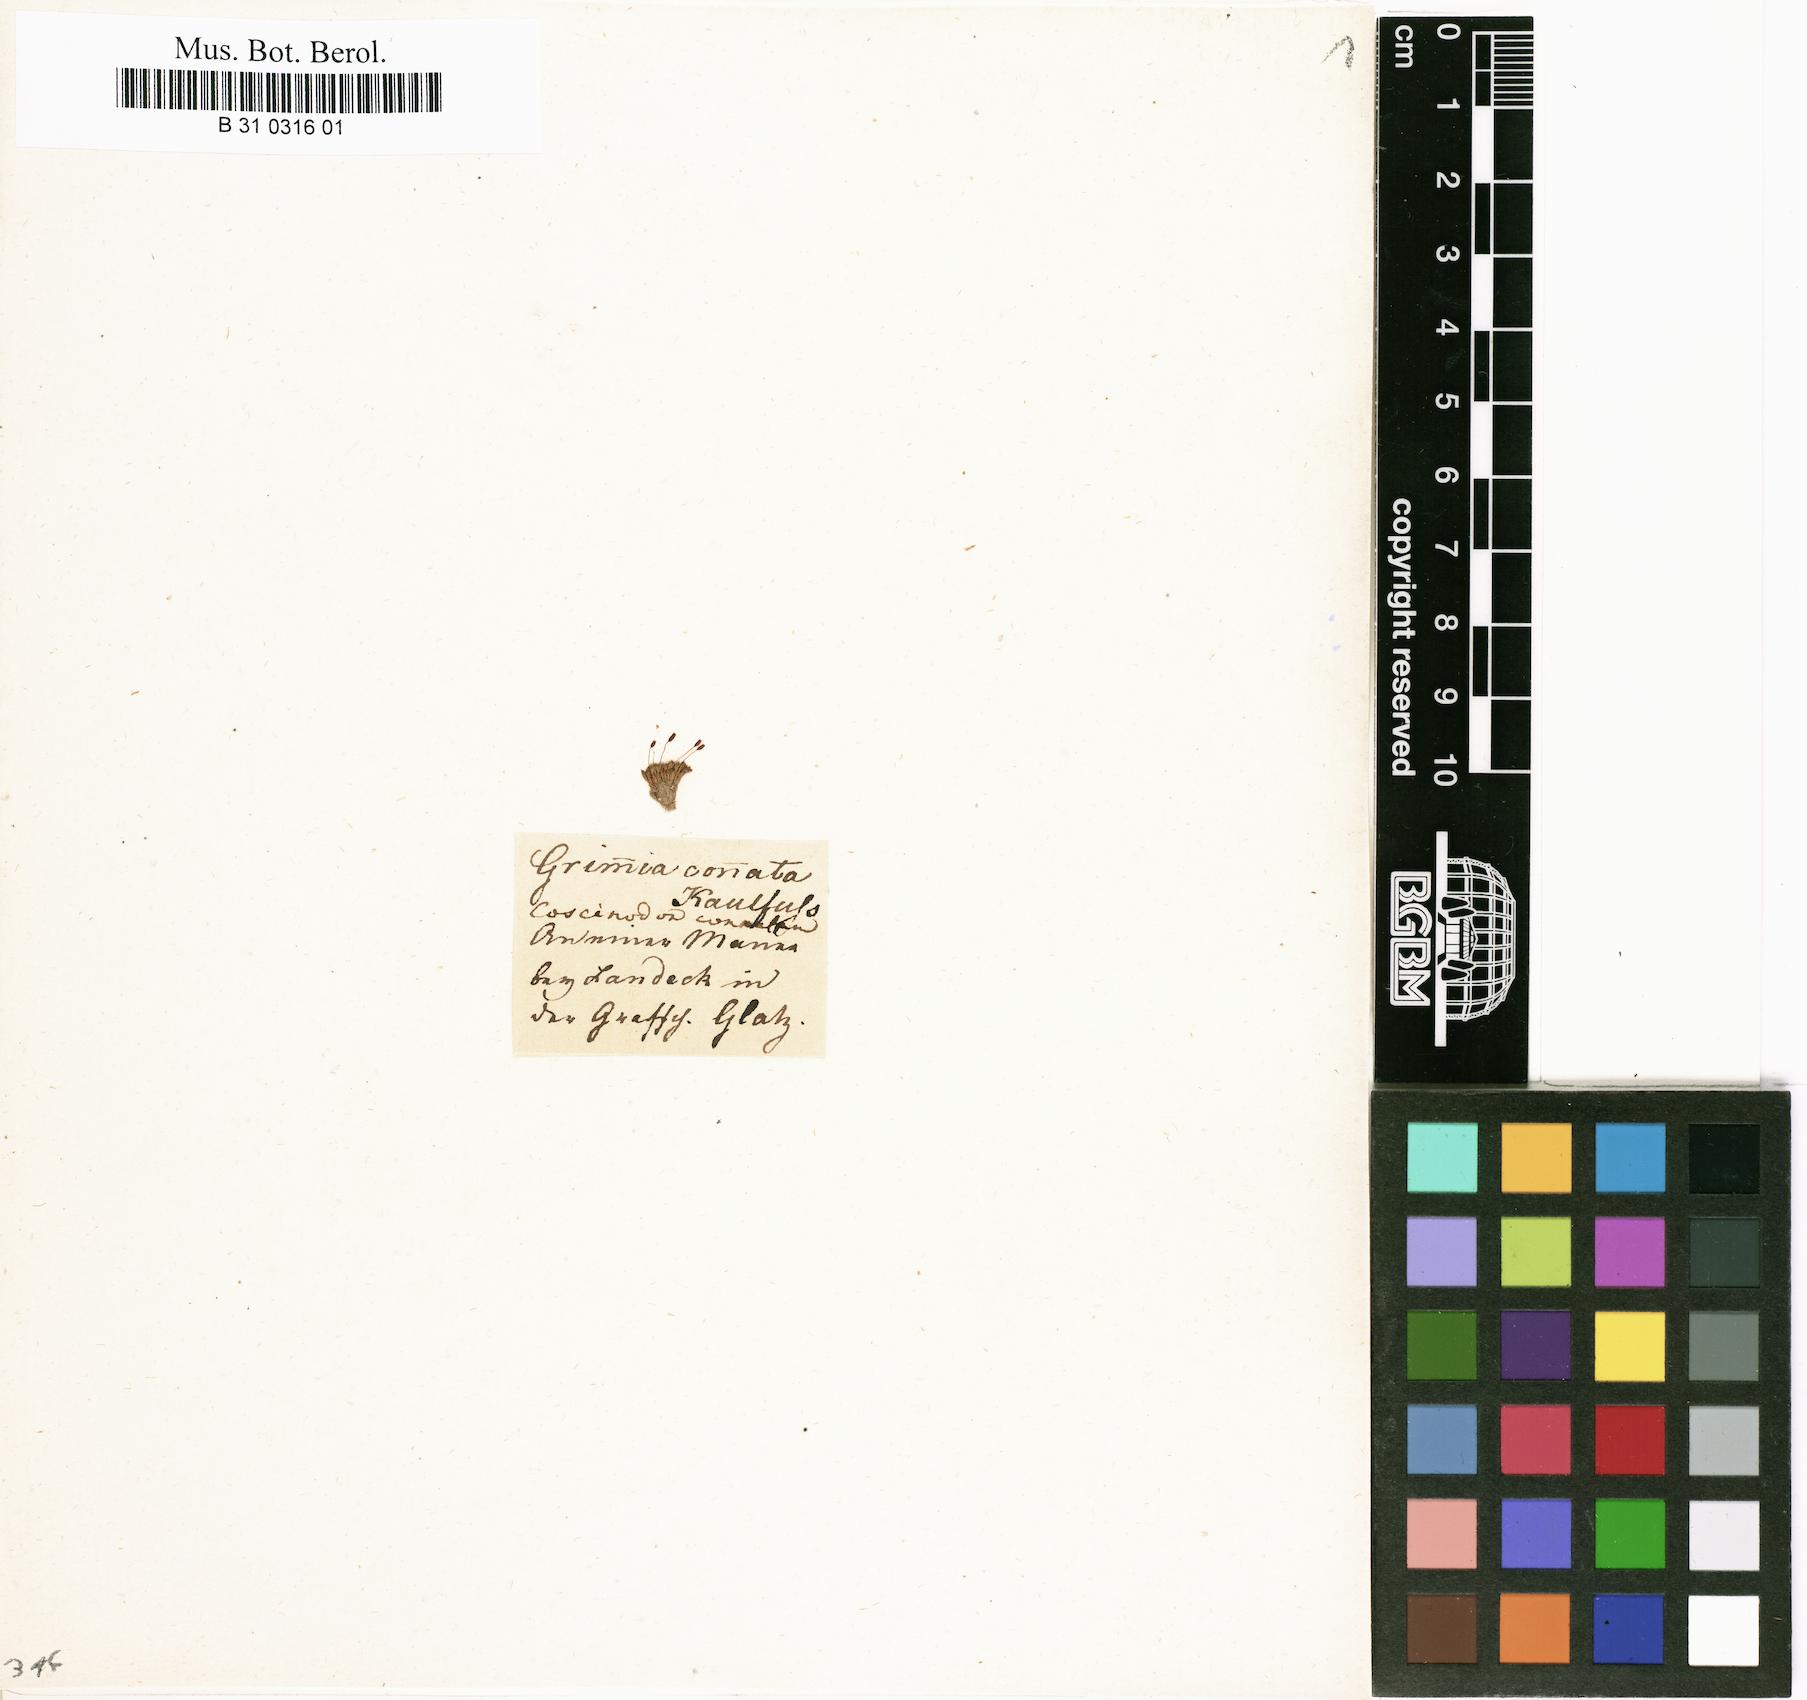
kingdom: Plantae
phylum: Bryophyta
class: Bryopsida
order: Pottiales
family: Pottiaceae
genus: Tortula
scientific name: Tortula lindbergii
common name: Lance-leaved pottia
